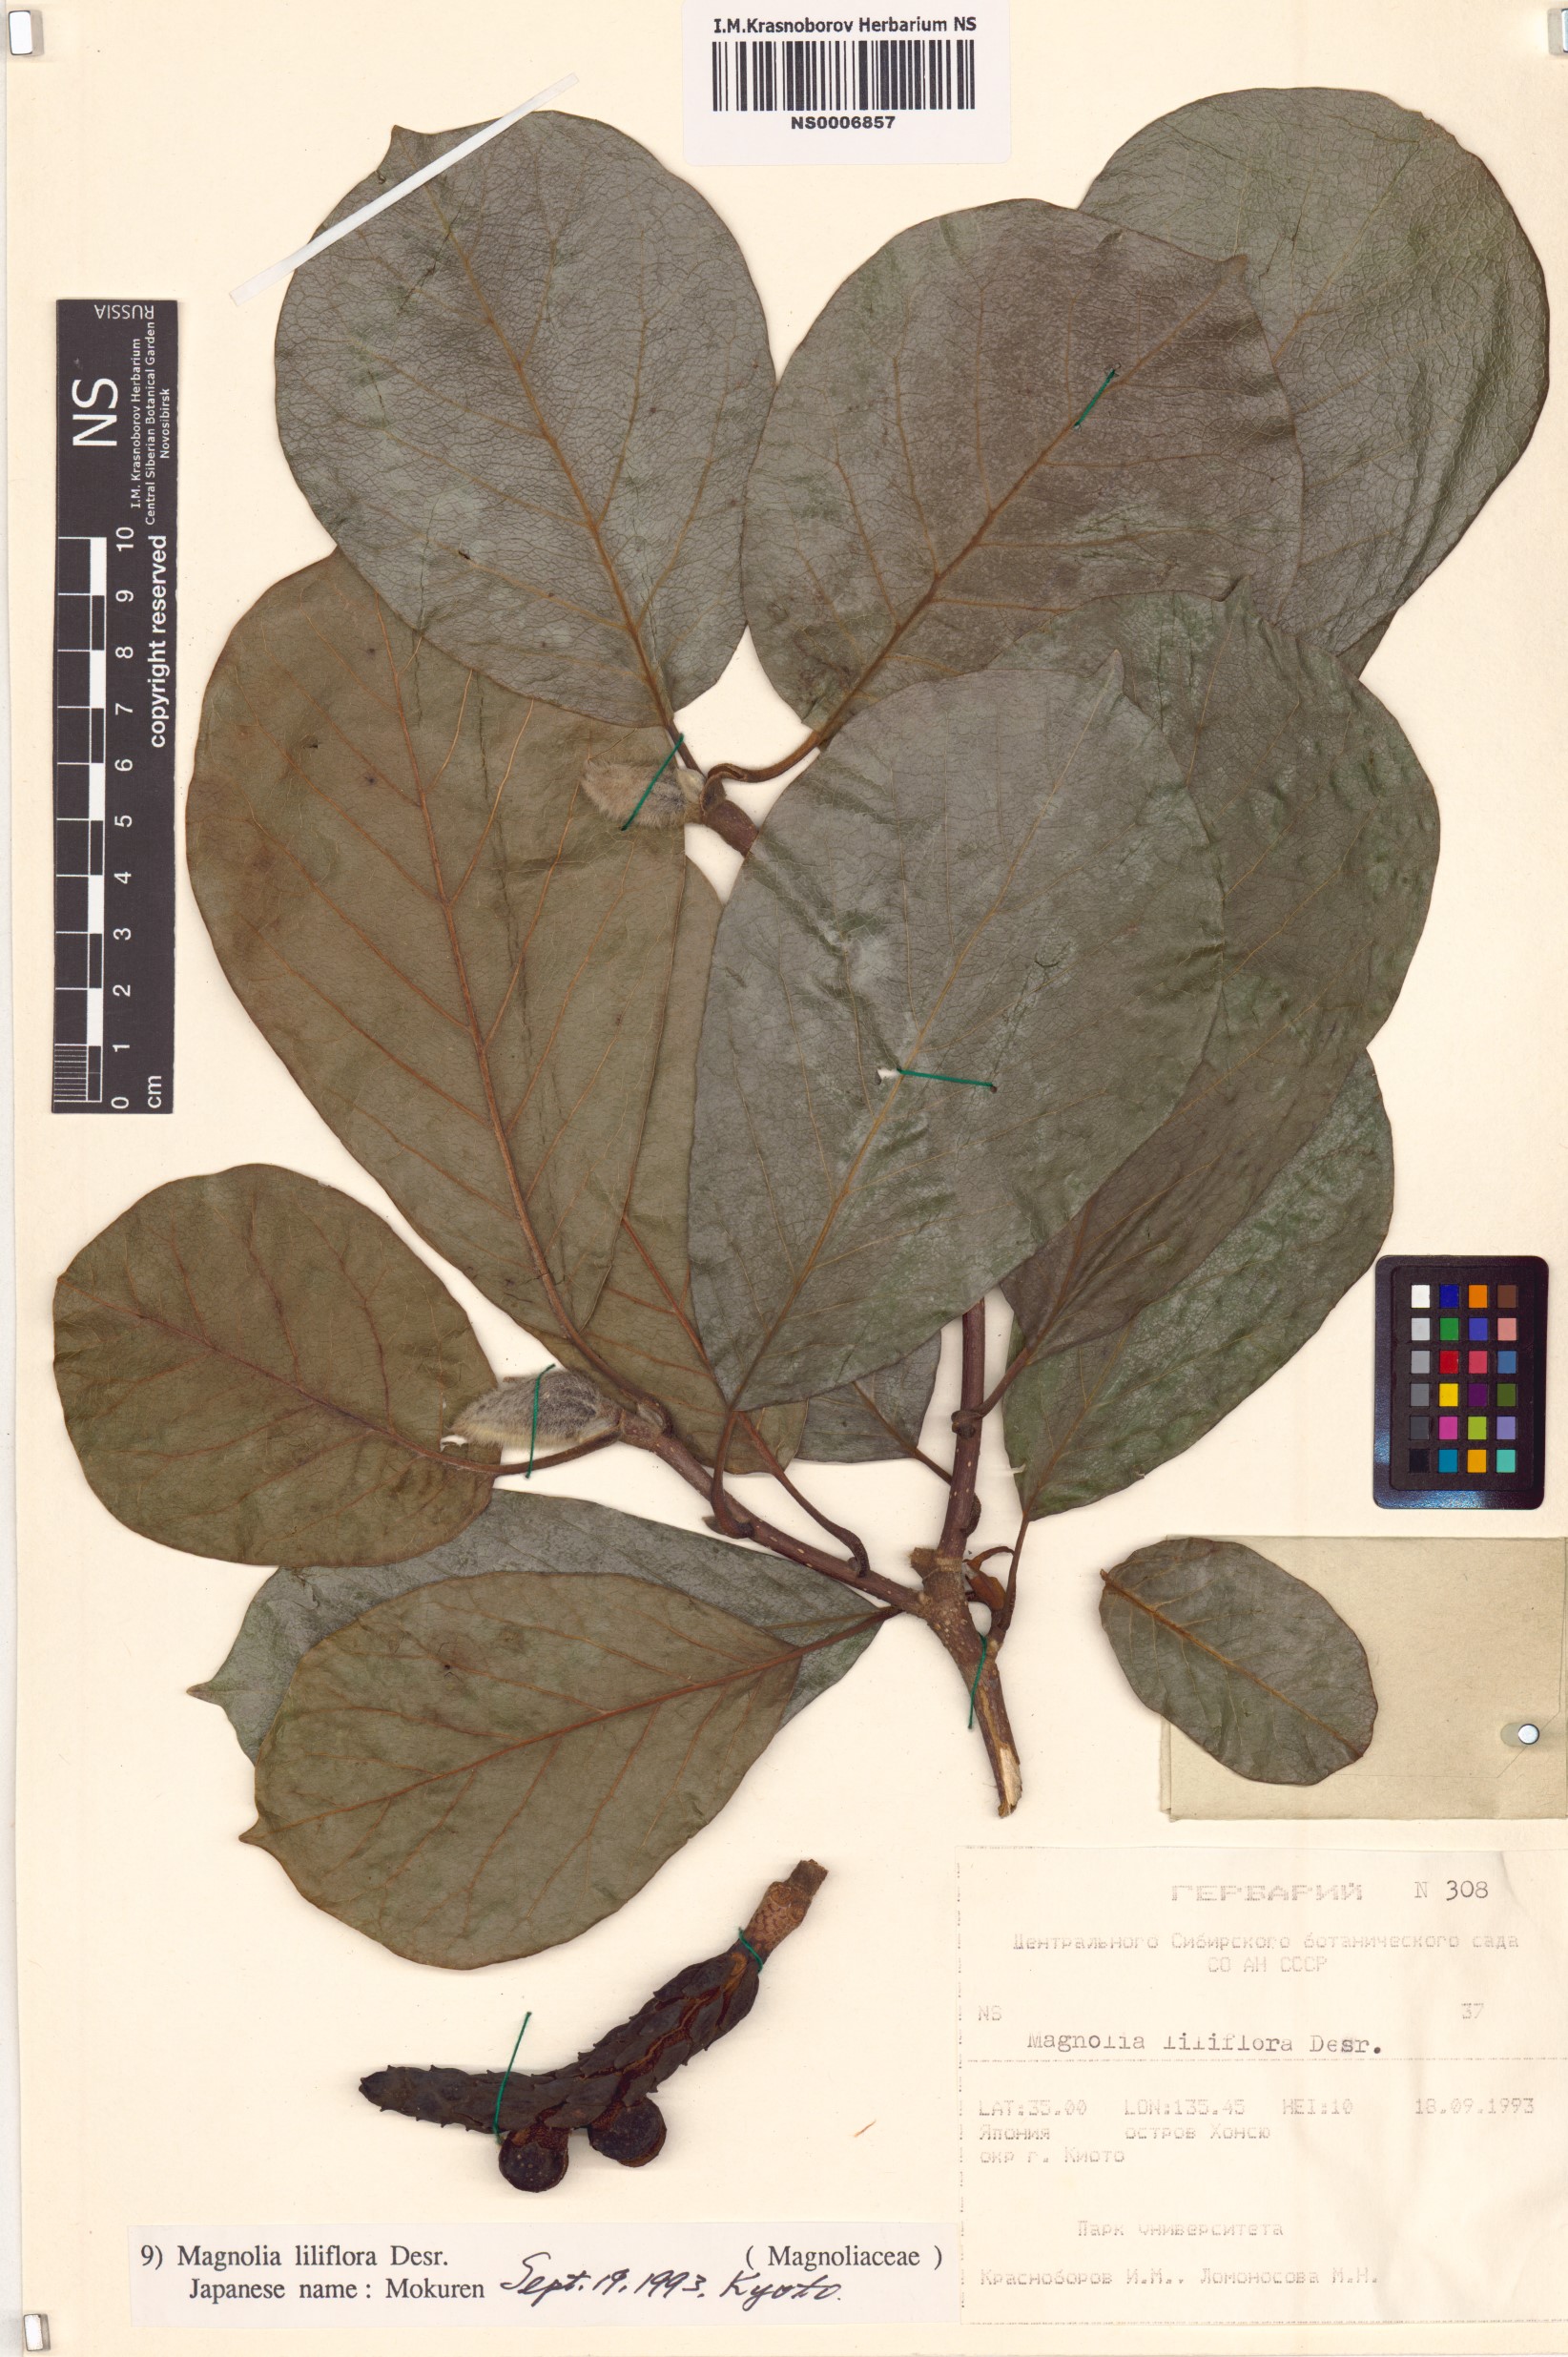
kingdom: Plantae
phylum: Tracheophyta
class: Magnoliopsida
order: Magnoliales
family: Magnoliaceae
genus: Magnolia
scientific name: Magnolia liliiflora
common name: Purple magnolia
